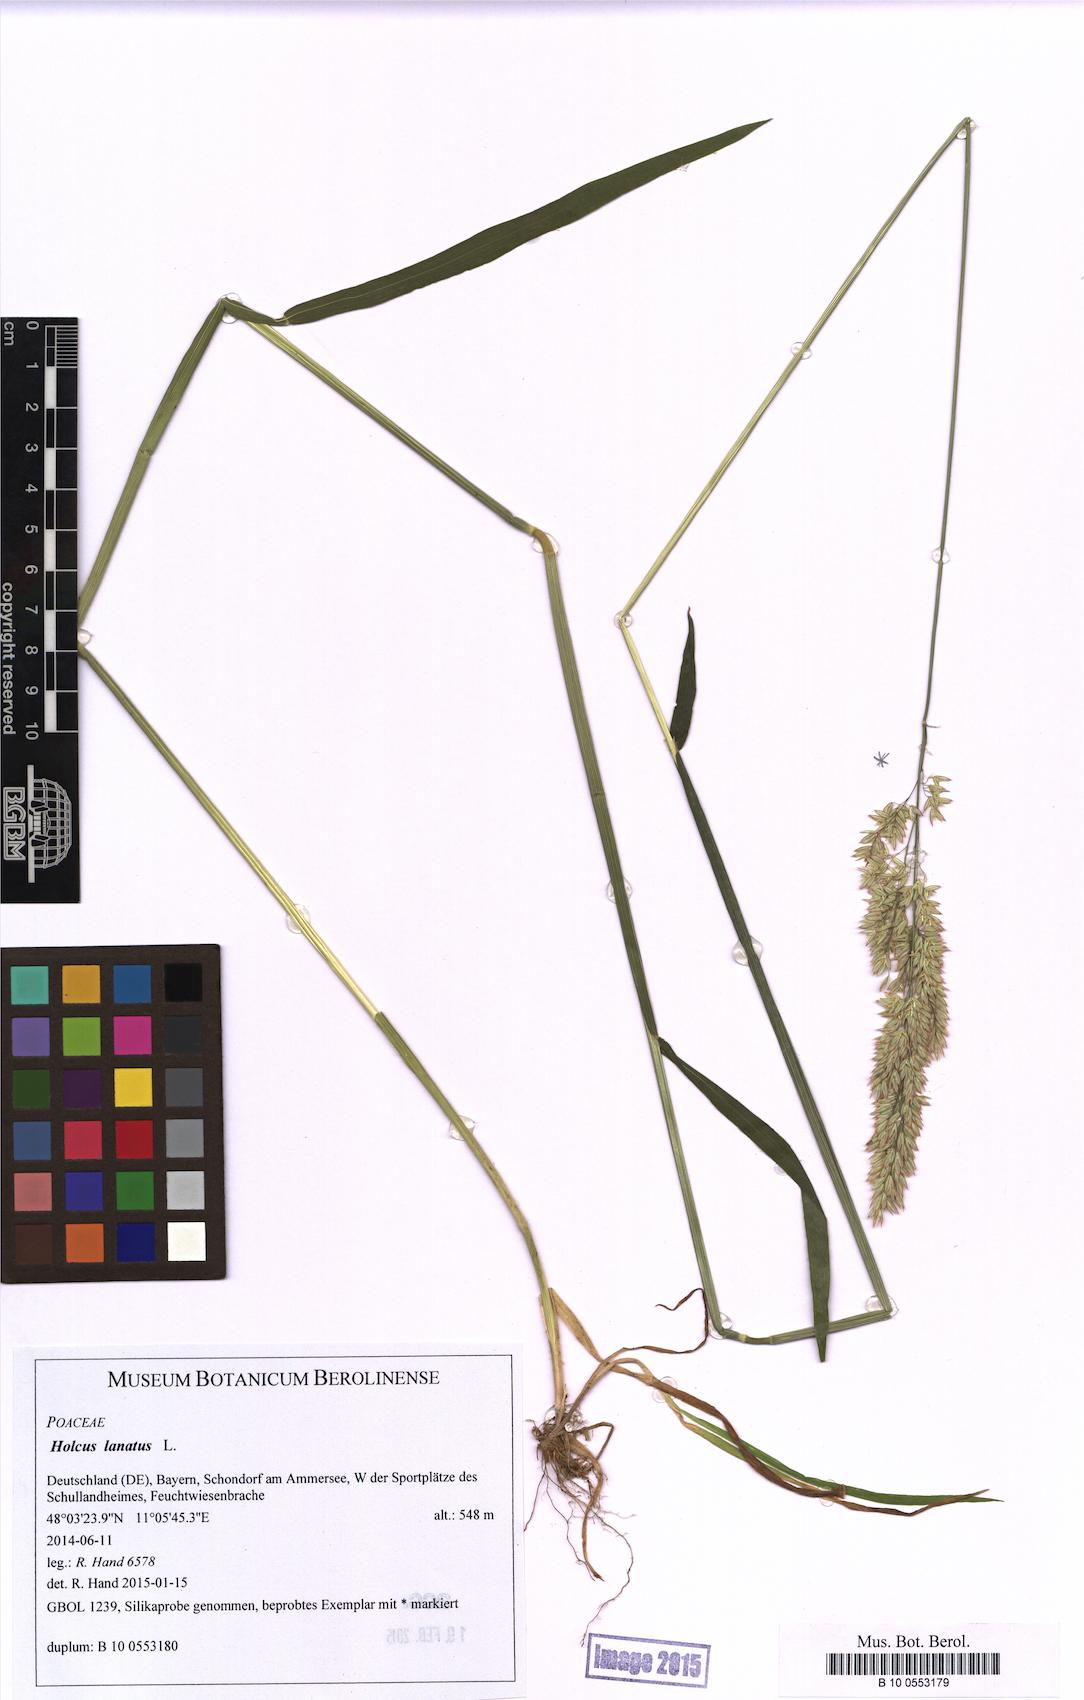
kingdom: Plantae
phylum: Tracheophyta
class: Liliopsida
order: Poales
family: Poaceae
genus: Holcus
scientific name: Holcus lanatus
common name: Yorkshire-fog
